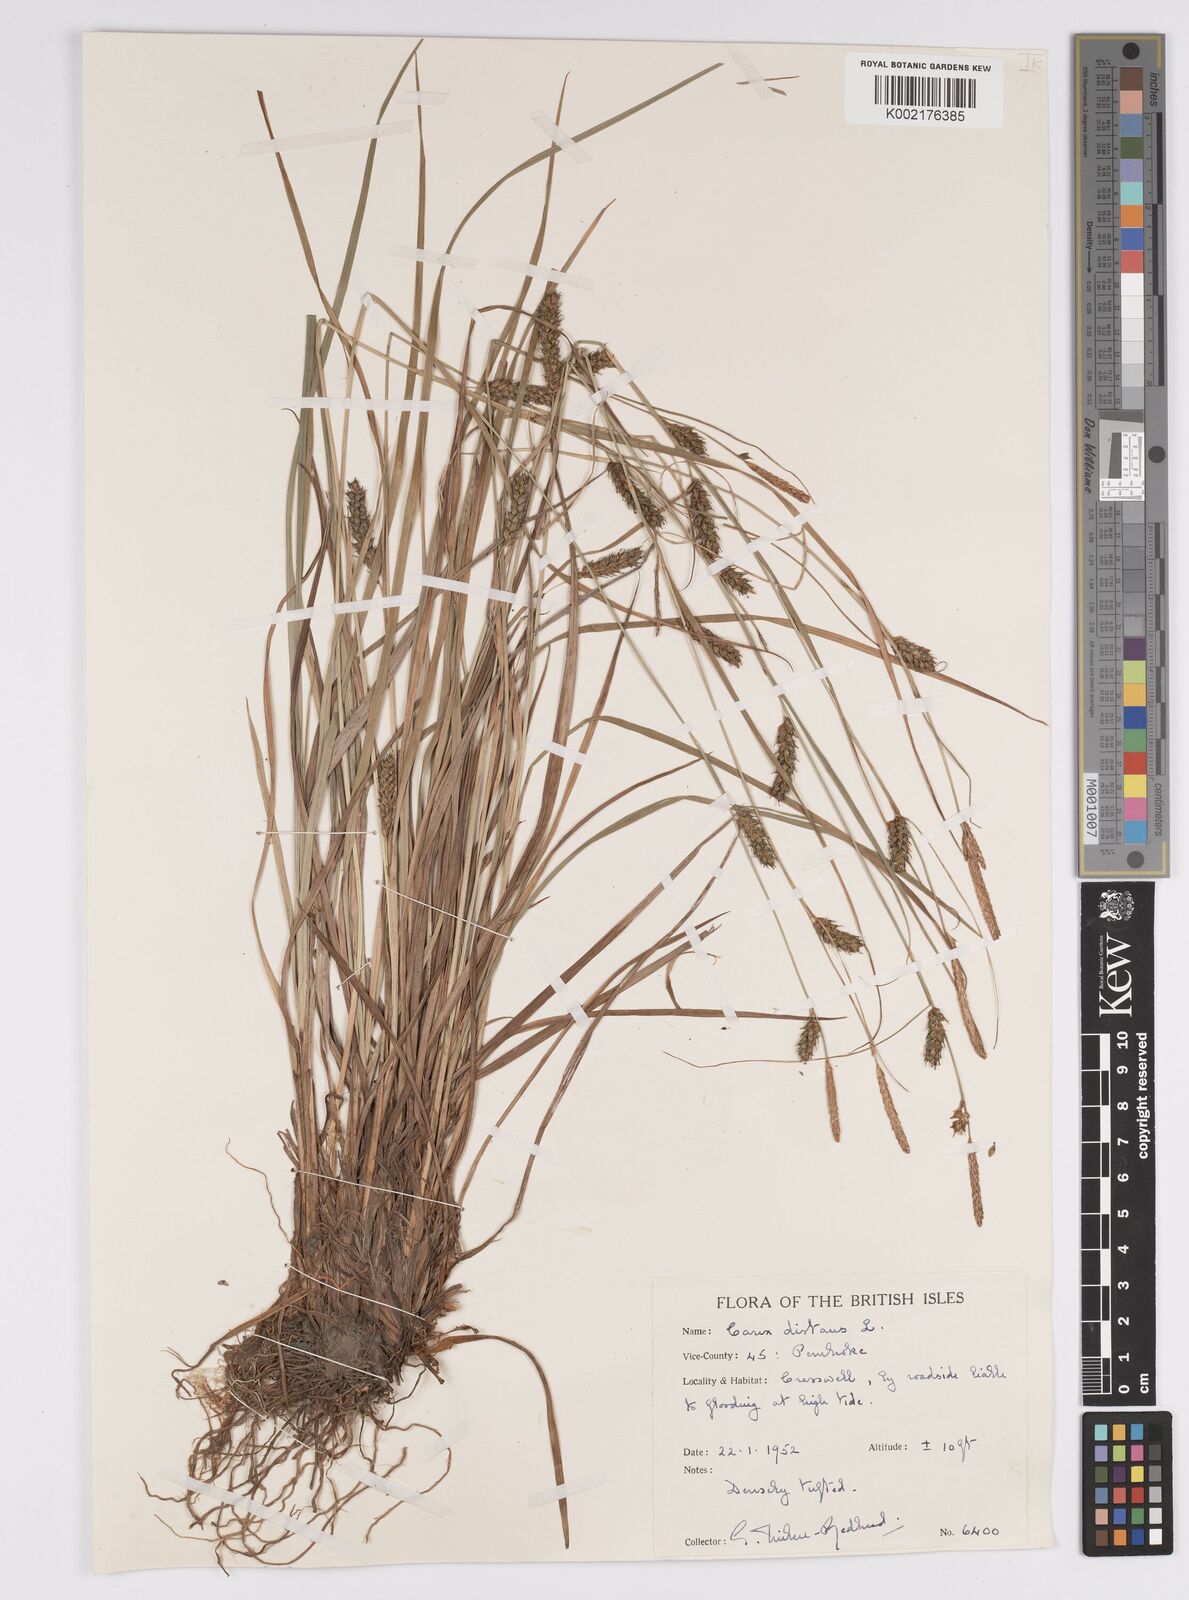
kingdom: Plantae
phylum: Tracheophyta
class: Liliopsida
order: Poales
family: Cyperaceae
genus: Carex
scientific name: Carex distans
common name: Distant sedge
